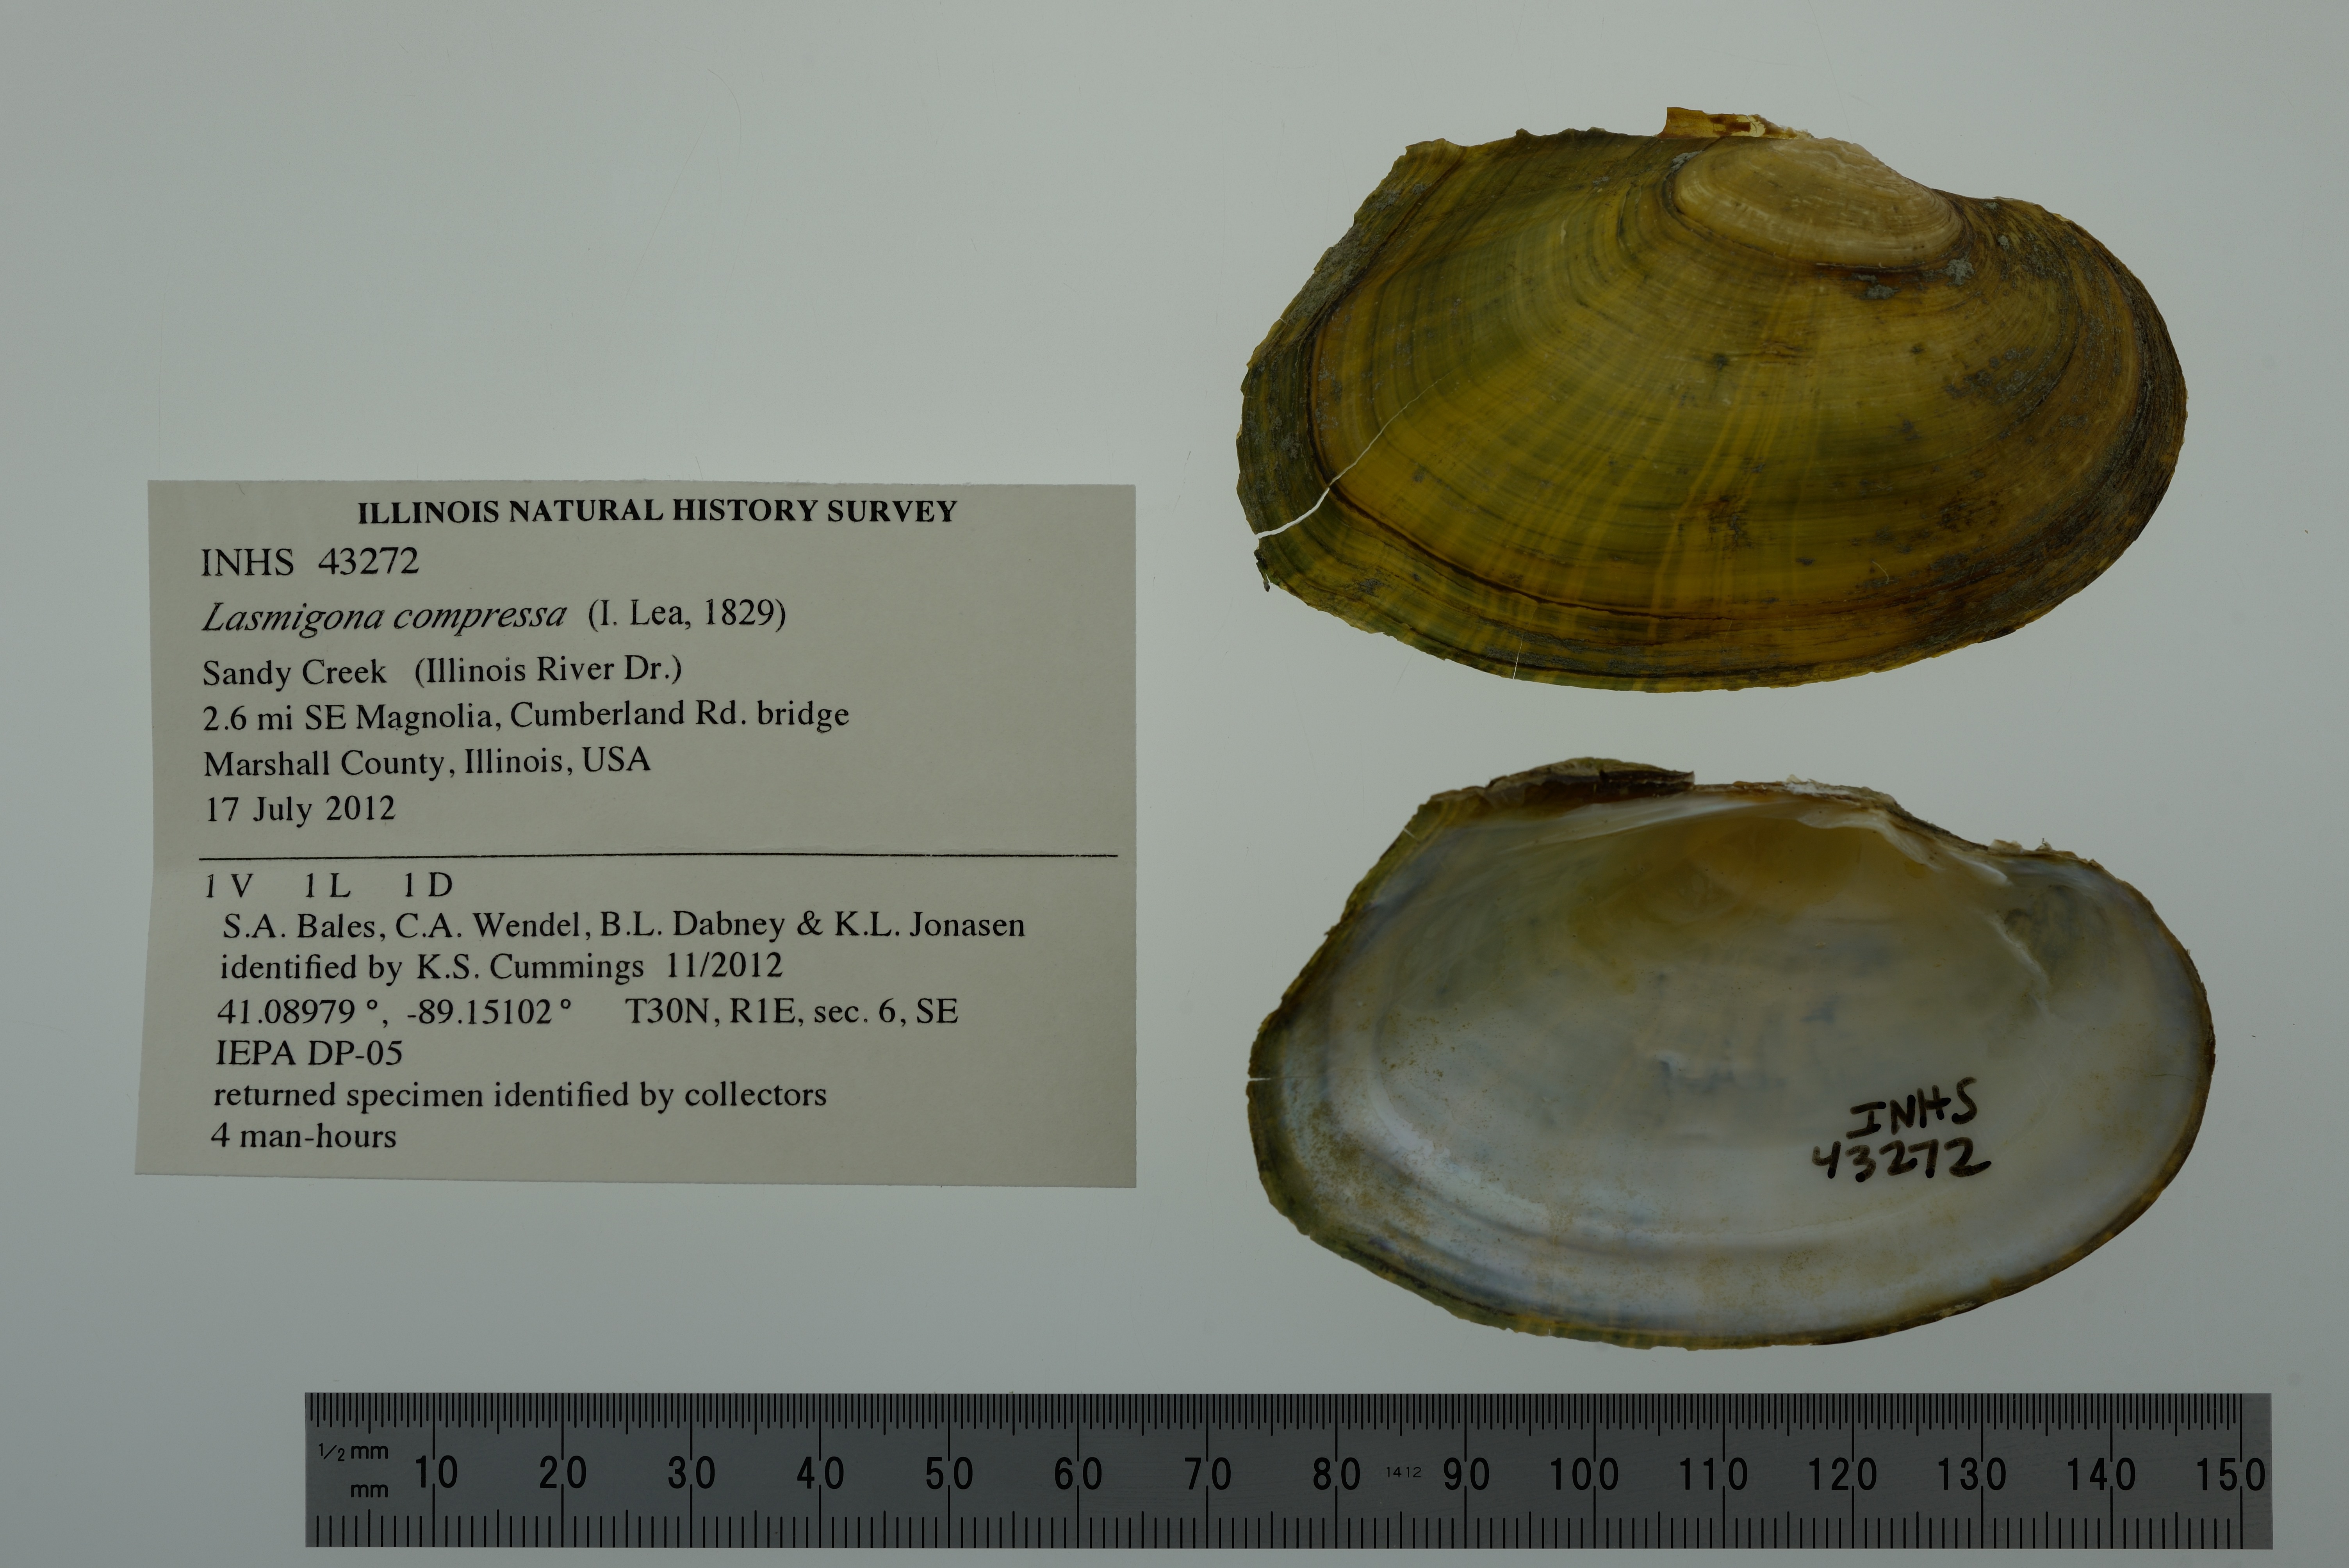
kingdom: Animalia
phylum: Mollusca
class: Bivalvia
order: Unionida
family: Unionidae
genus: Lasmigona
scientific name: Lasmigona compressa
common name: Creek heelsplitter
